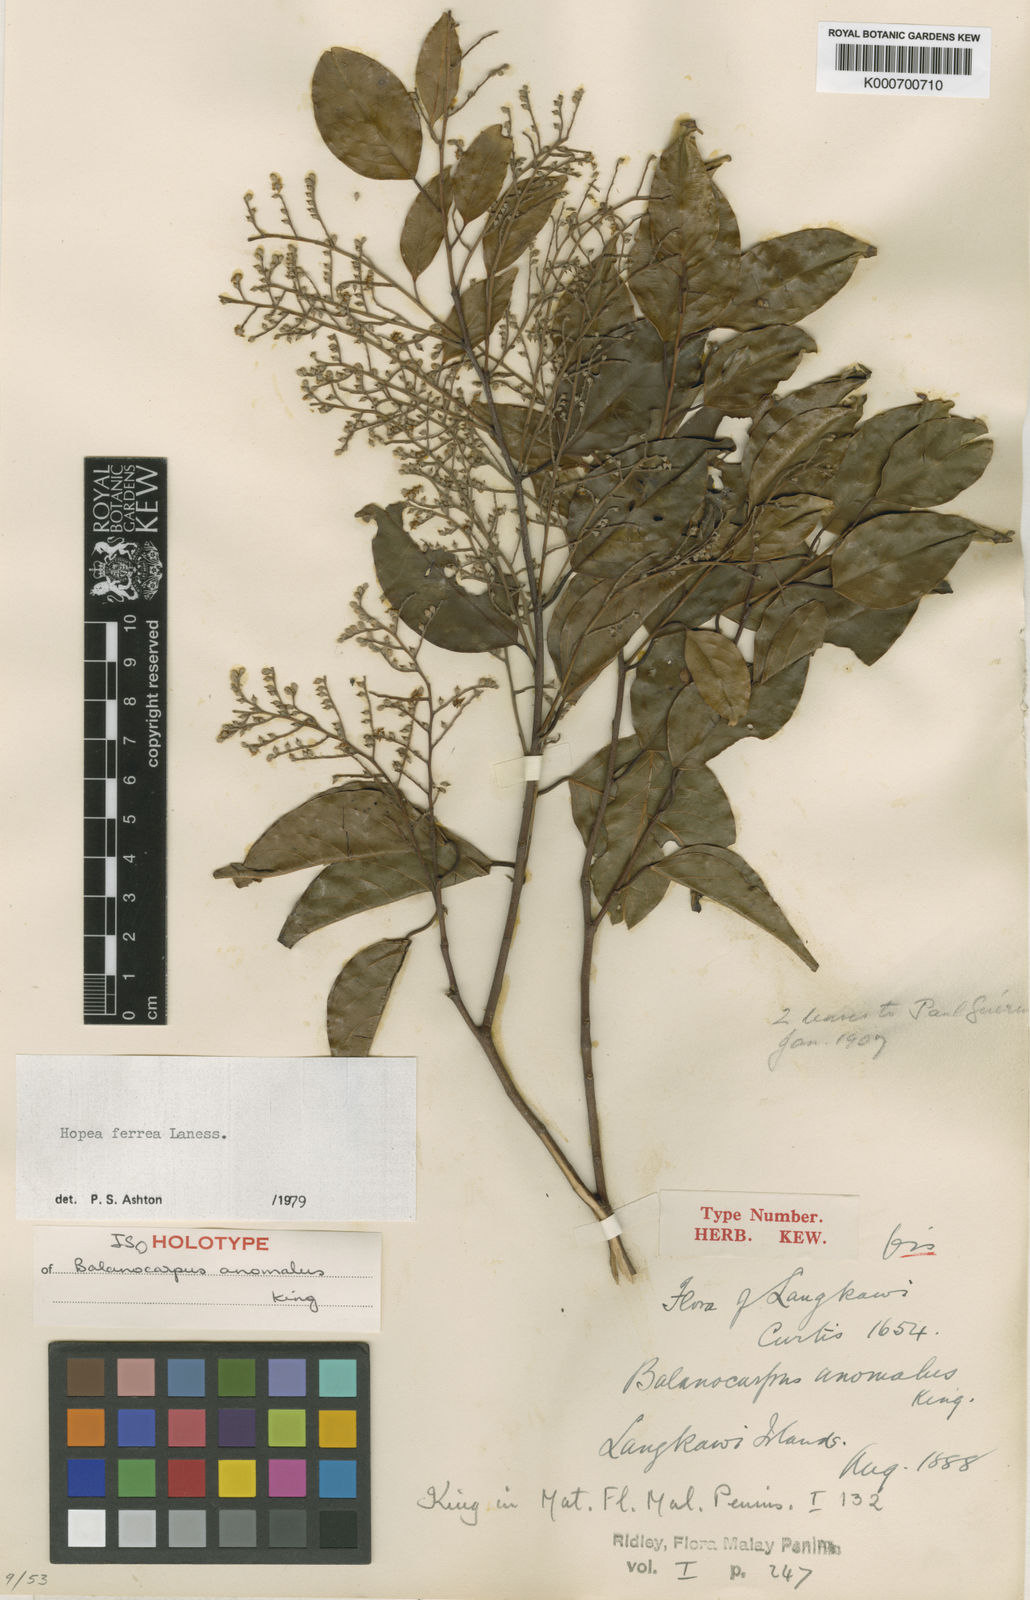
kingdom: Plantae
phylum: Tracheophyta
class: Magnoliopsida
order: Malvales
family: Dipterocarpaceae
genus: Hopea
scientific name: Hopea ferrea
